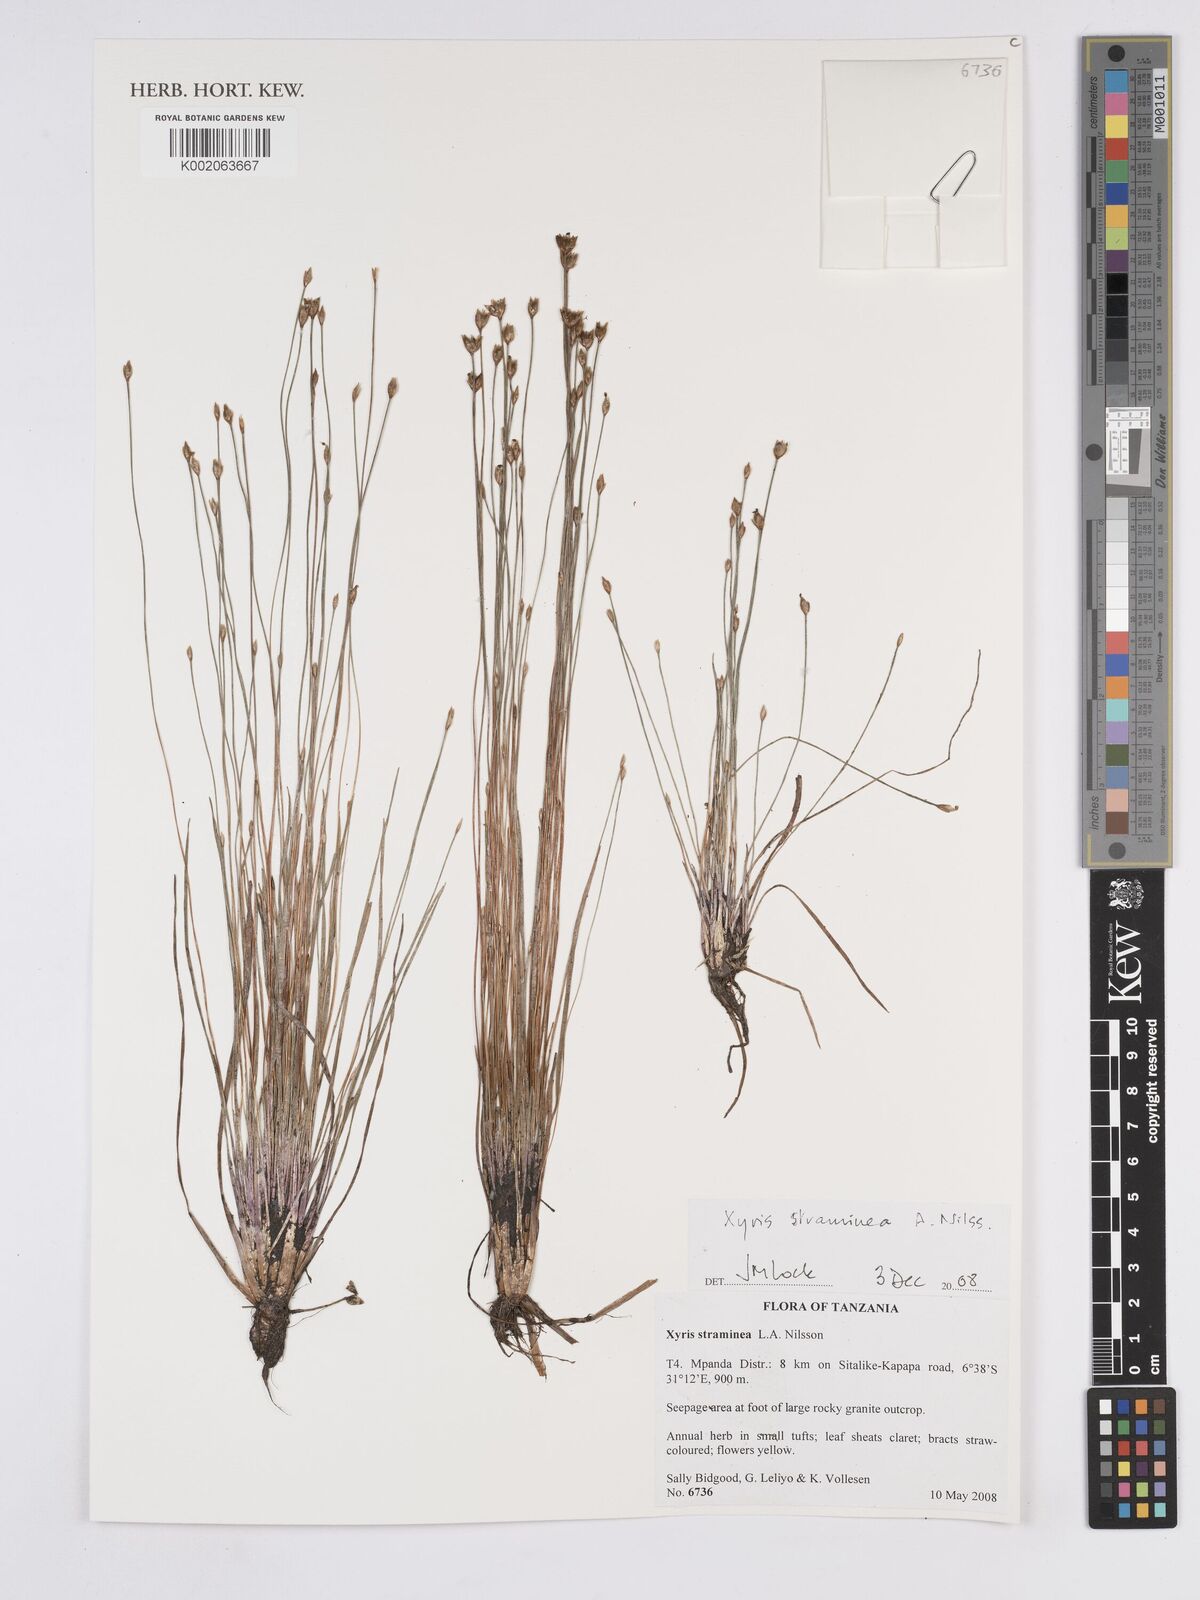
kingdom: Plantae
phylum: Tracheophyta
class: Liliopsida
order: Poales
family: Xyridaceae
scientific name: Xyridaceae
